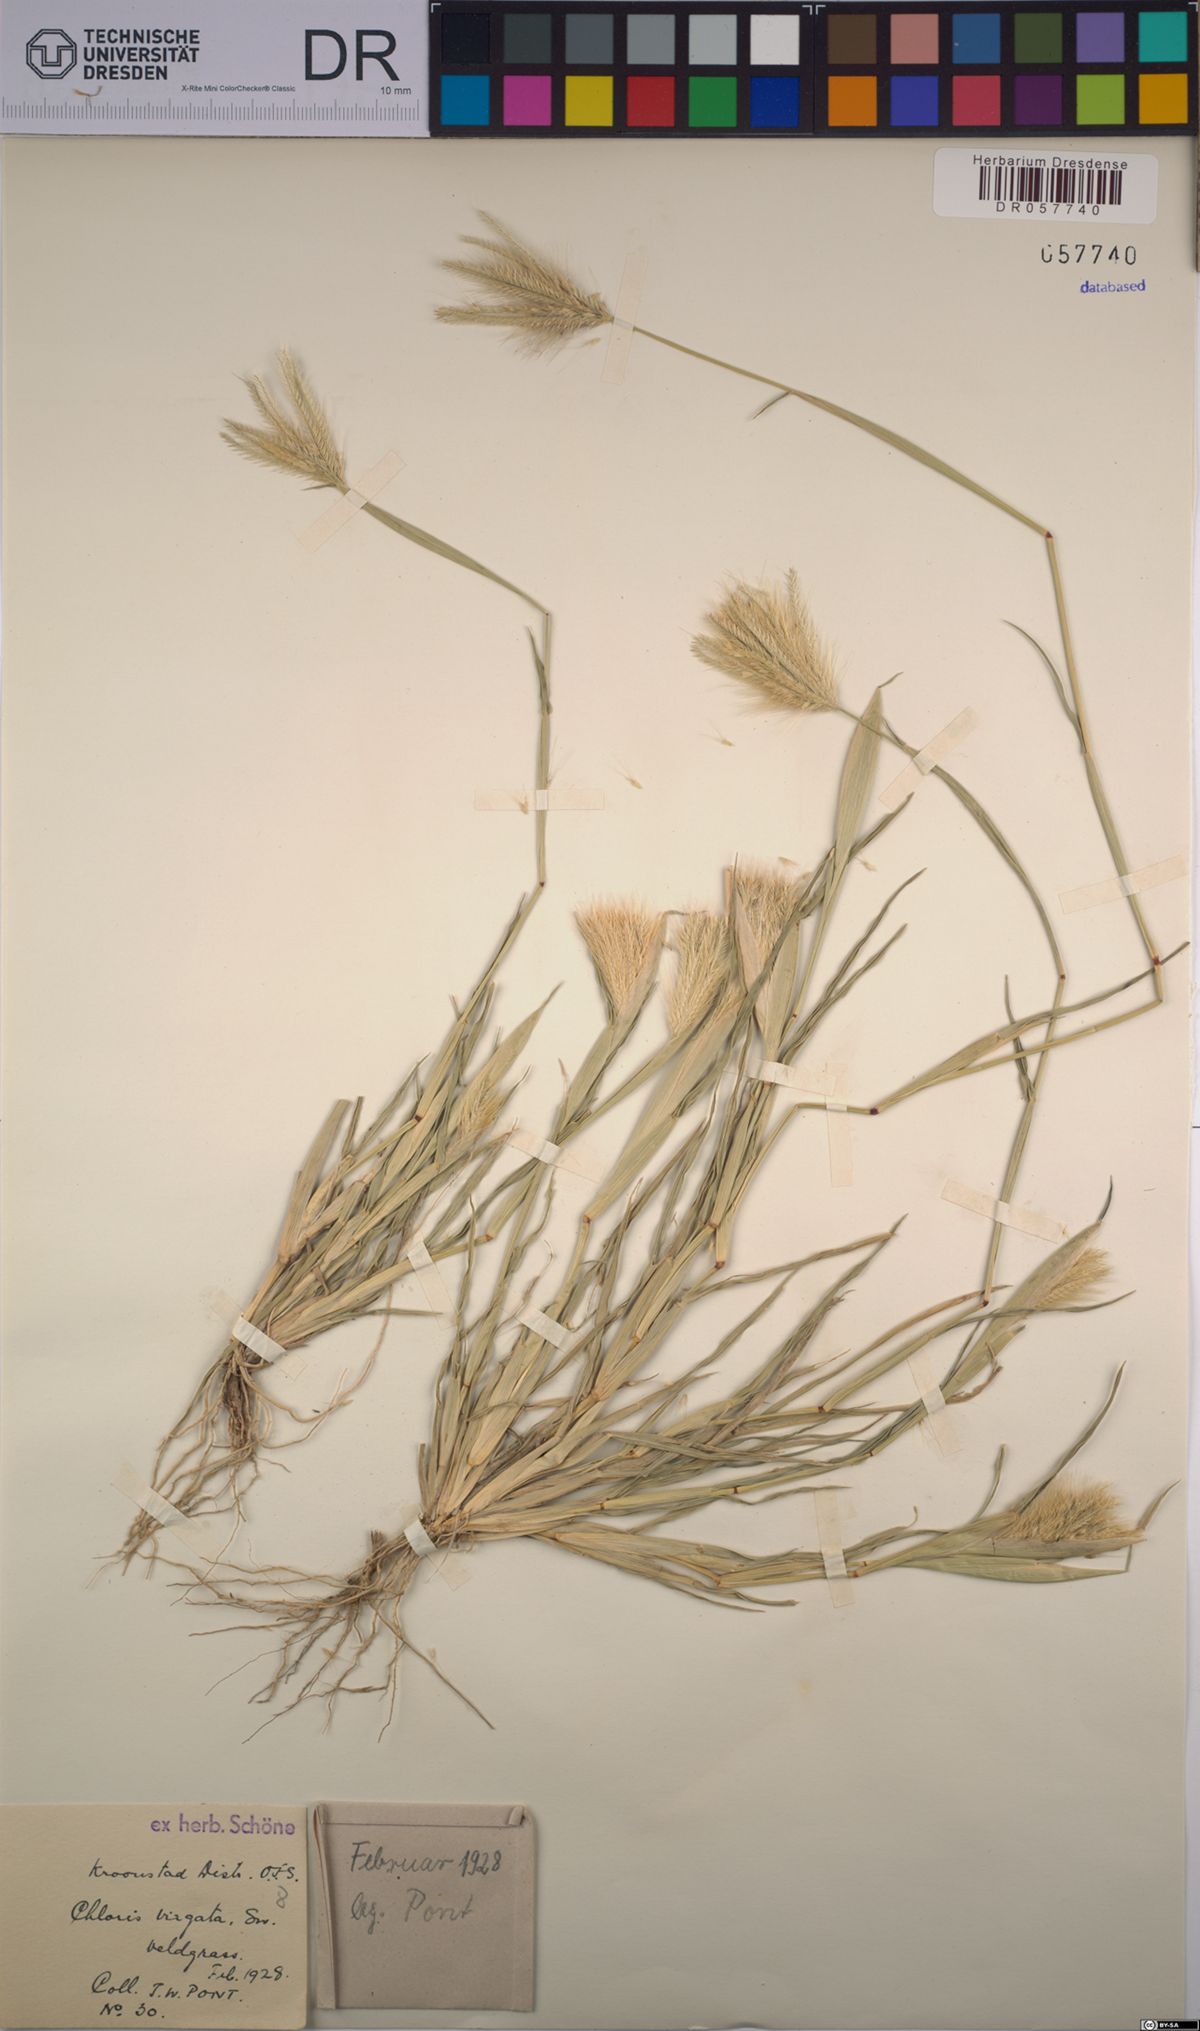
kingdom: Plantae
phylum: Tracheophyta
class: Liliopsida
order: Poales
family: Poaceae
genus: Chloris
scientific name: Chloris virgata
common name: Feathery rhodes-grass
